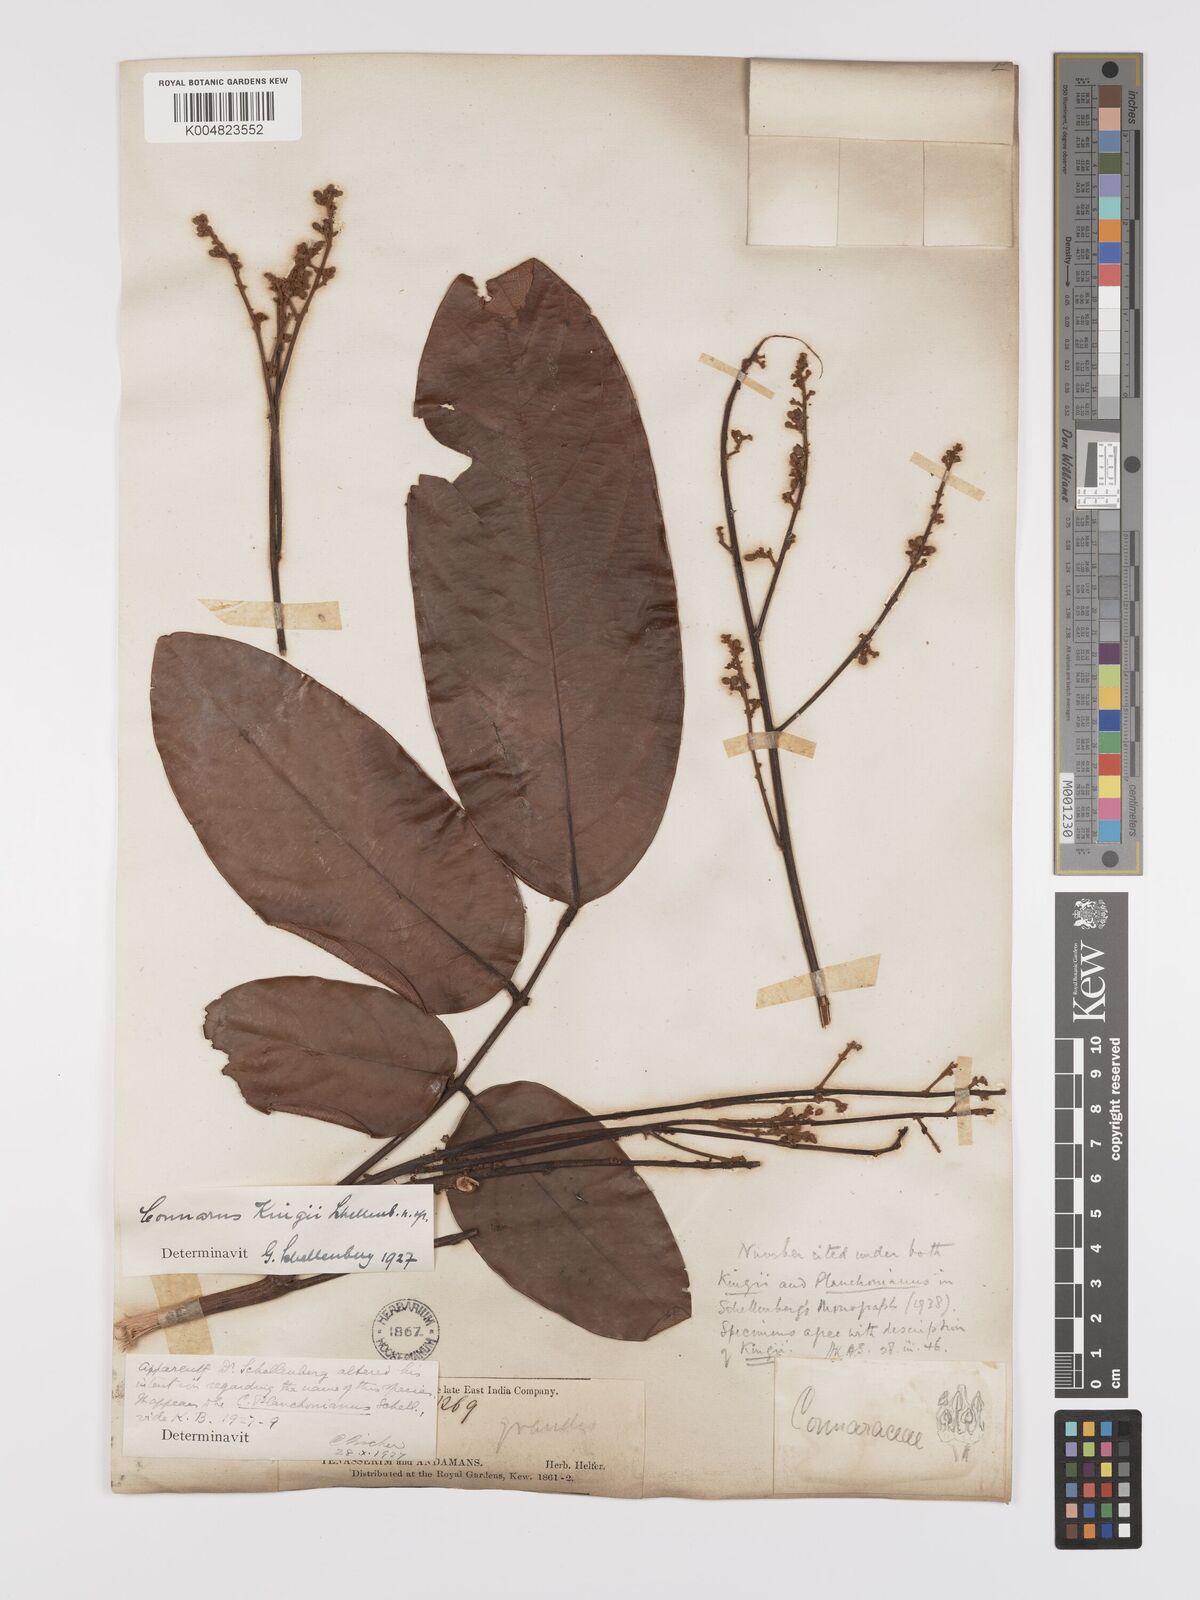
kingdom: Plantae
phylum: Tracheophyta
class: Magnoliopsida
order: Oxalidales
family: Connaraceae
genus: Connarus
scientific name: Connarus kingii
